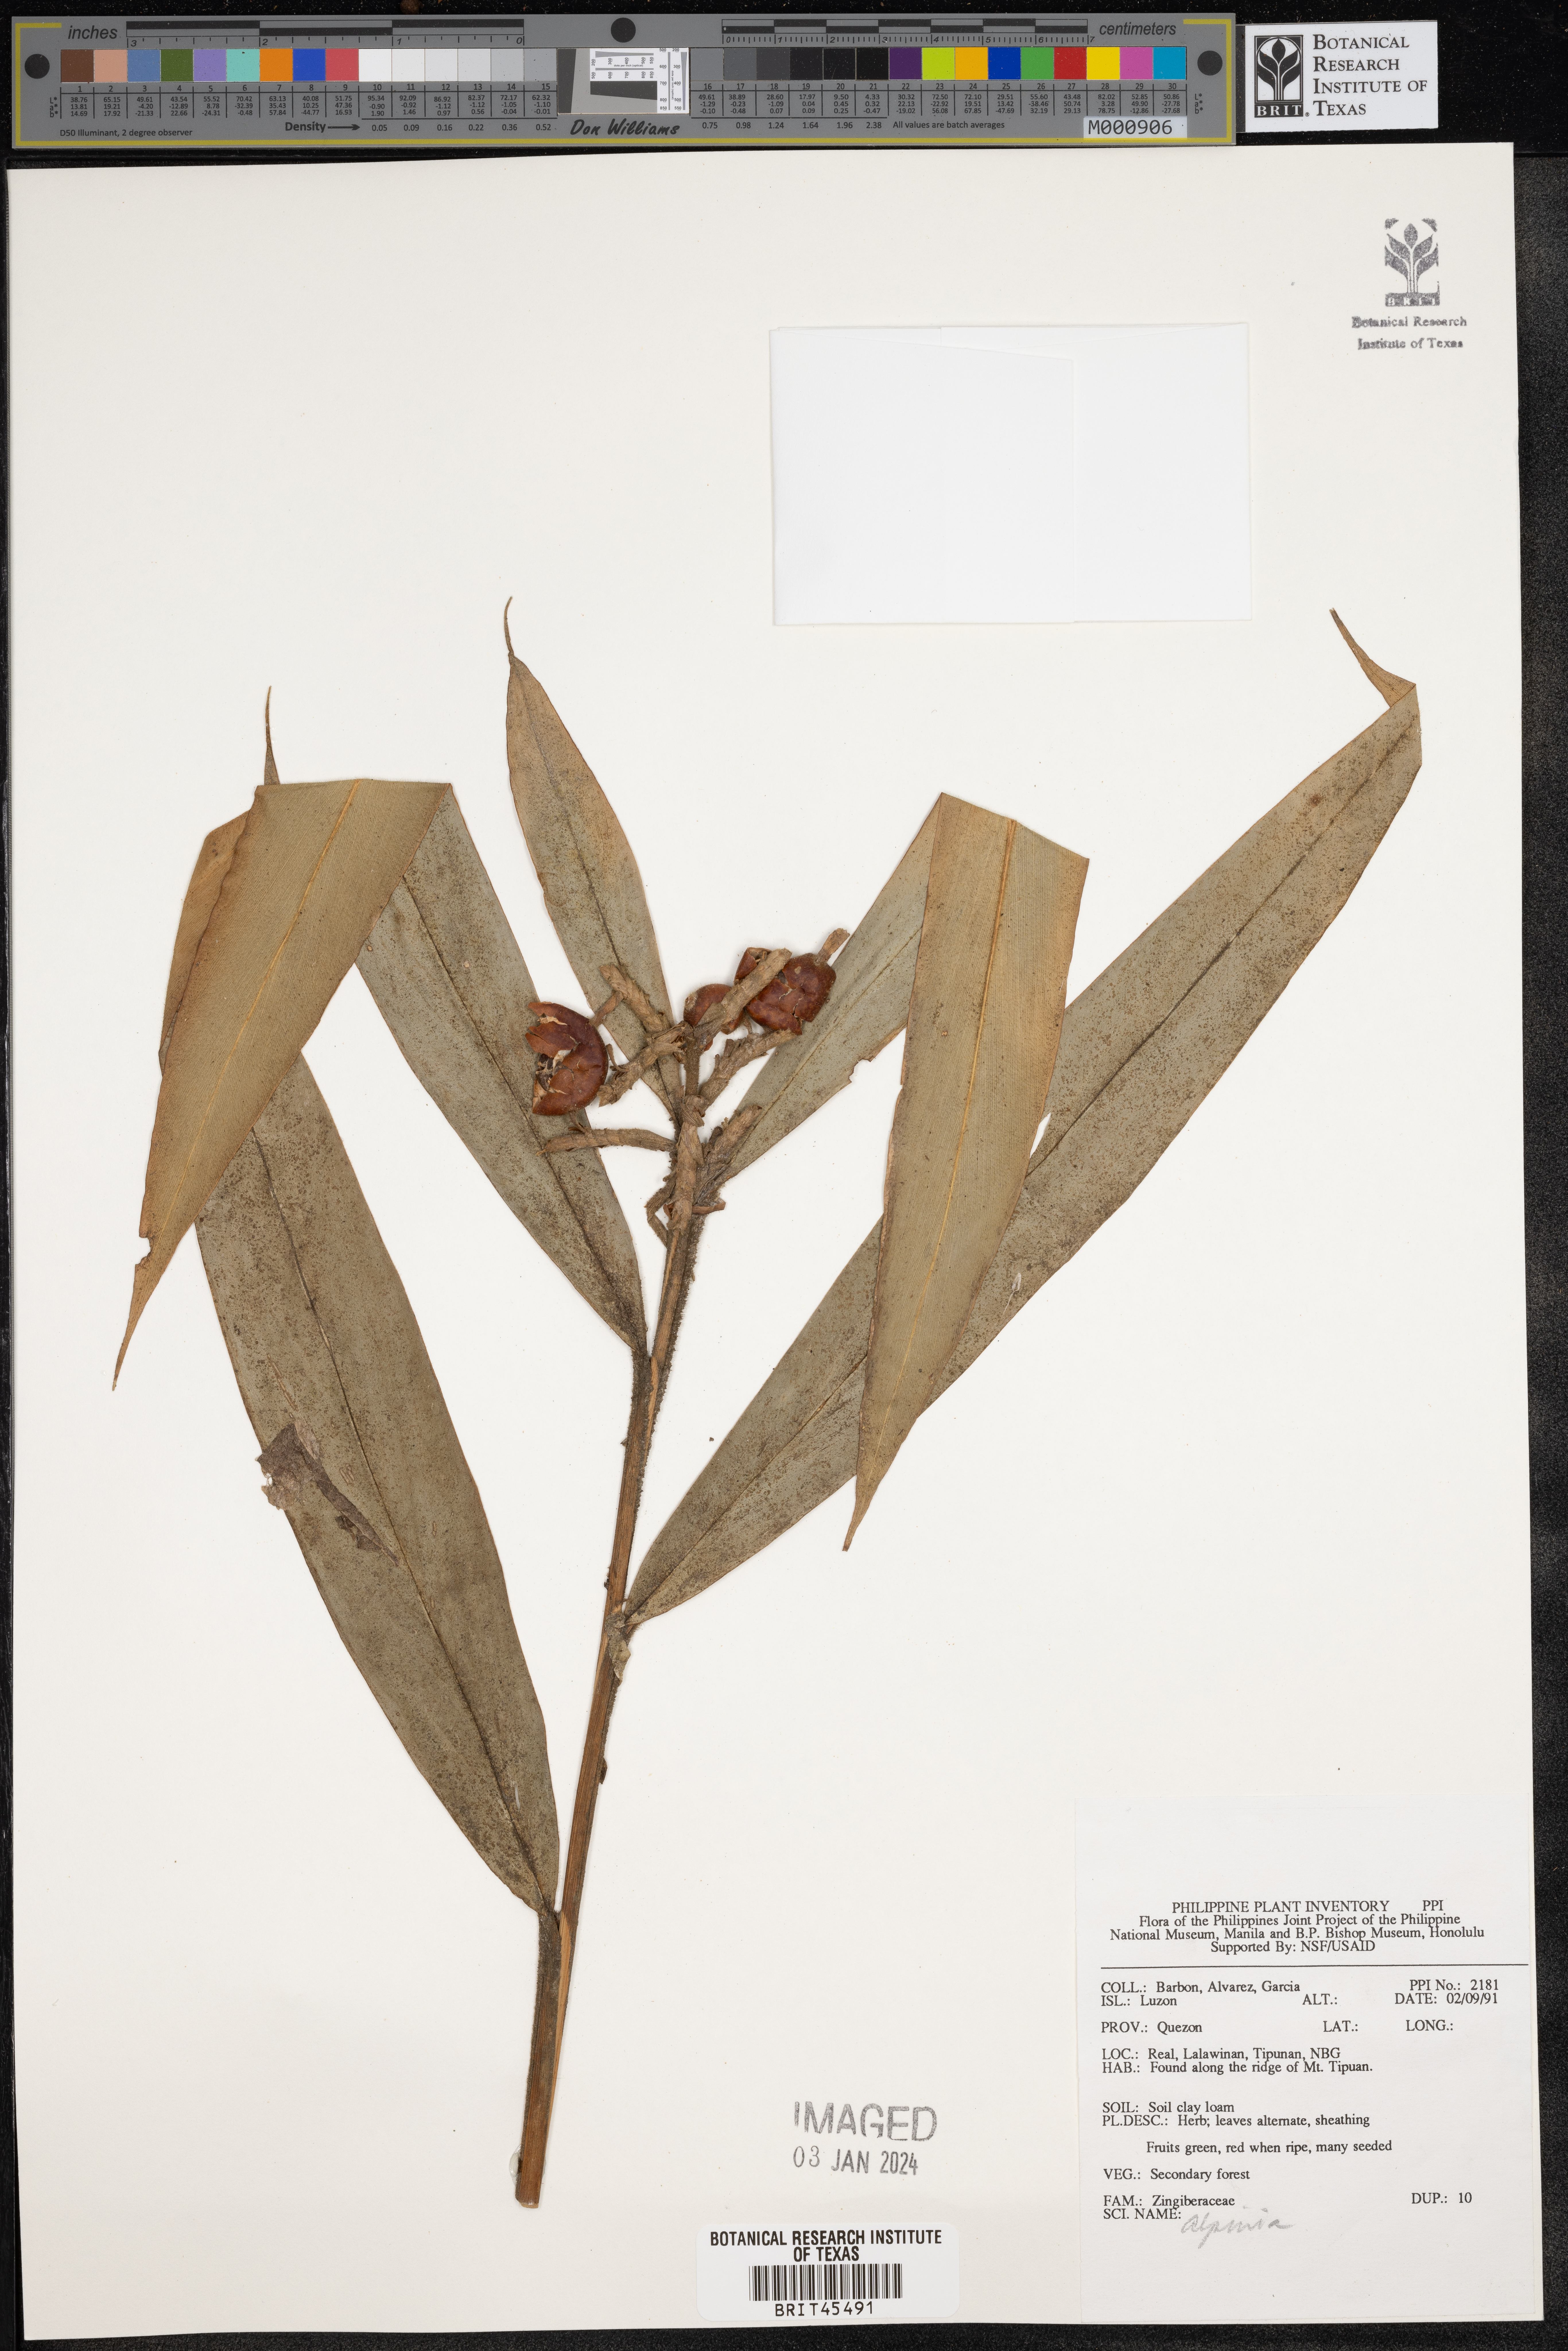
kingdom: Plantae
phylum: Tracheophyta
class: Liliopsida
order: Zingiberales
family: Zingiberaceae
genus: Alpinia
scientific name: Alpinia
